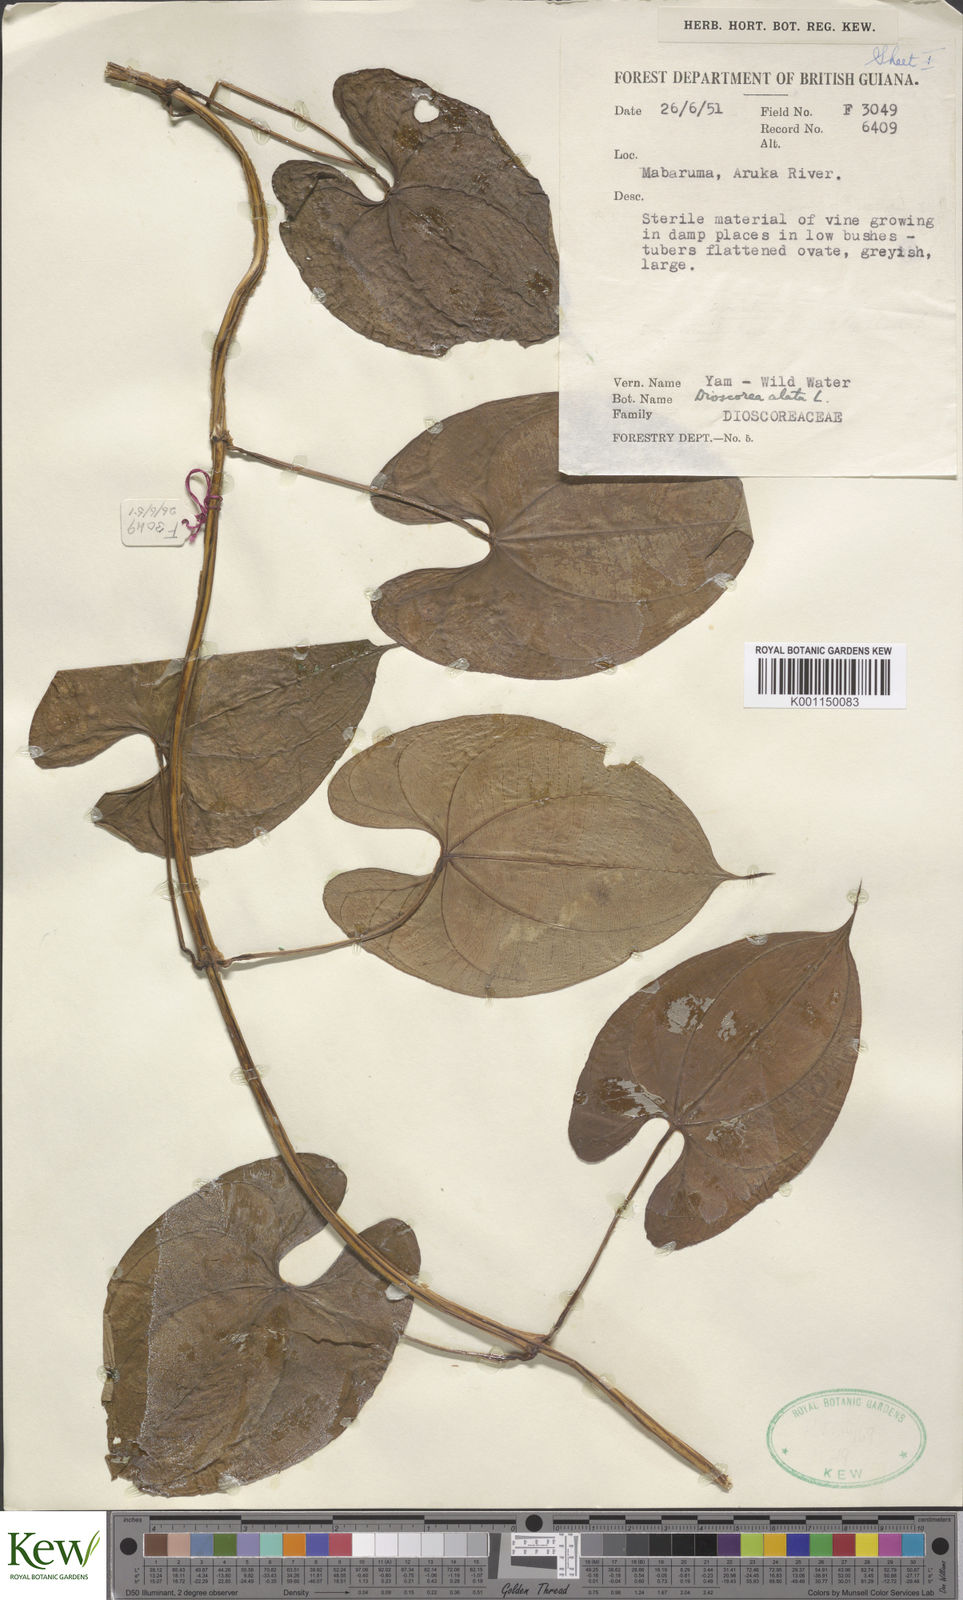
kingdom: Plantae
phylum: Tracheophyta
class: Liliopsida
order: Dioscoreales
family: Dioscoreaceae
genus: Dioscorea
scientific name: Dioscorea alata
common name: Water yam
